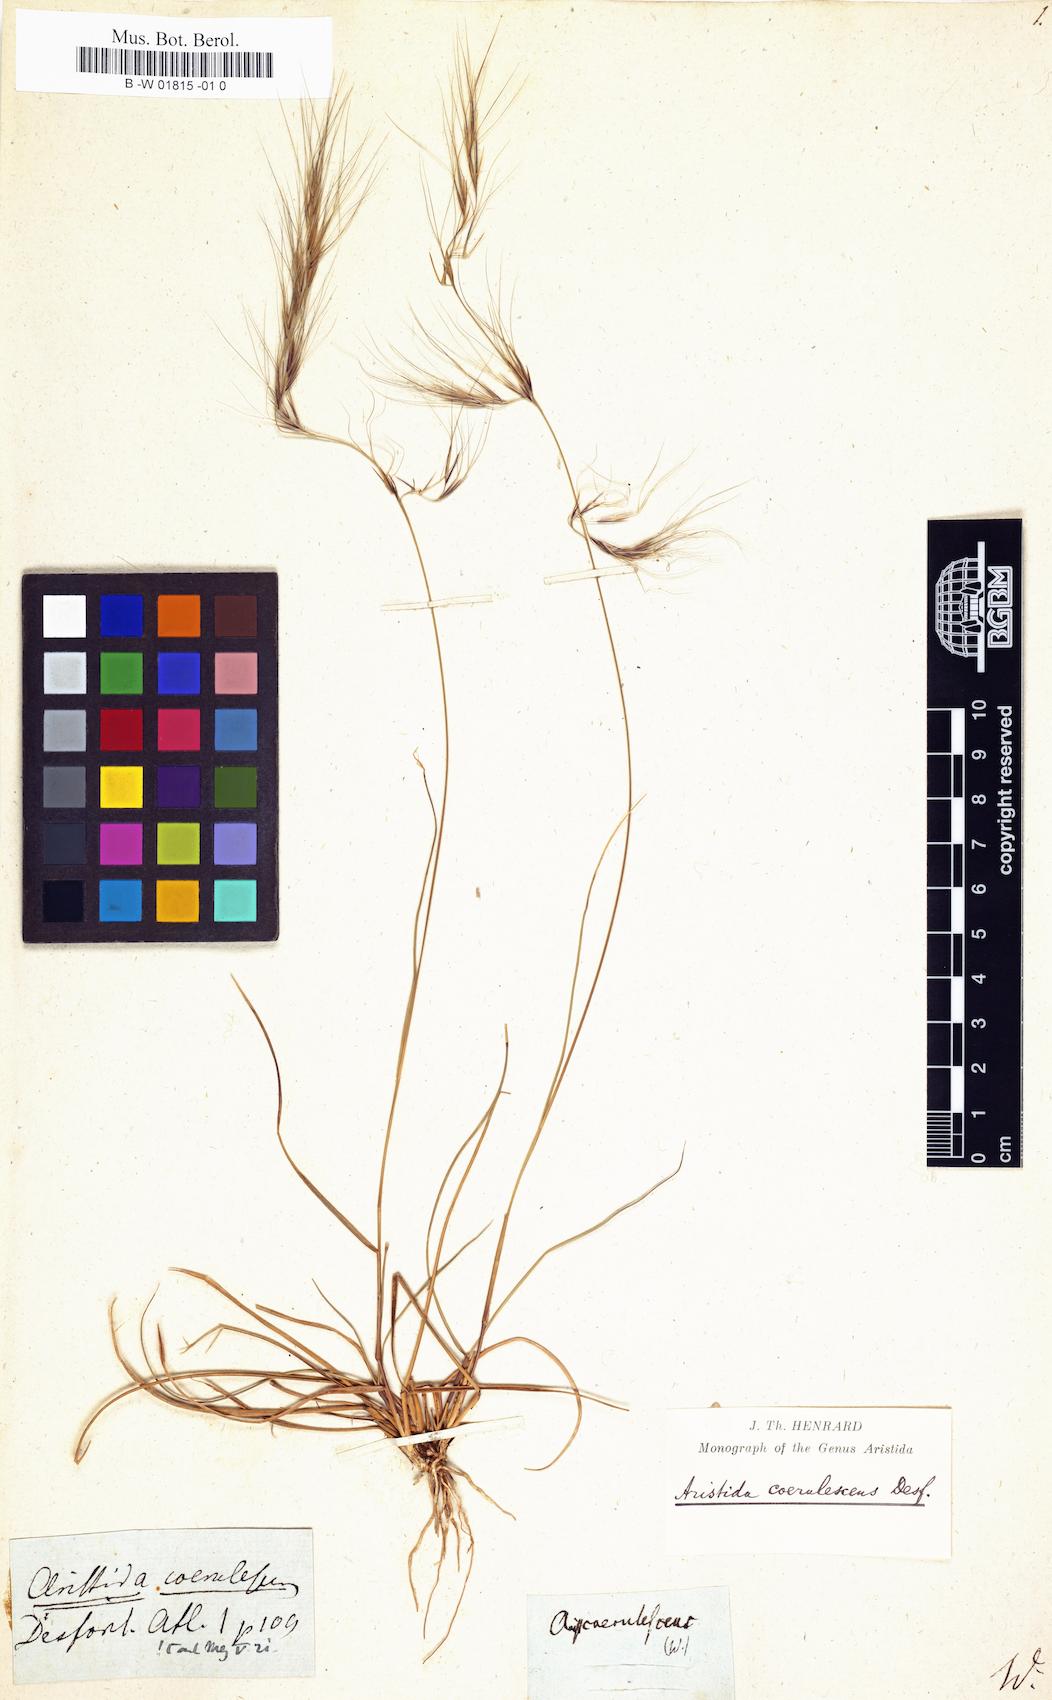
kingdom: Plantae
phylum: Tracheophyta
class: Liliopsida
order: Poales
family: Poaceae
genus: Aristida
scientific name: Aristida
